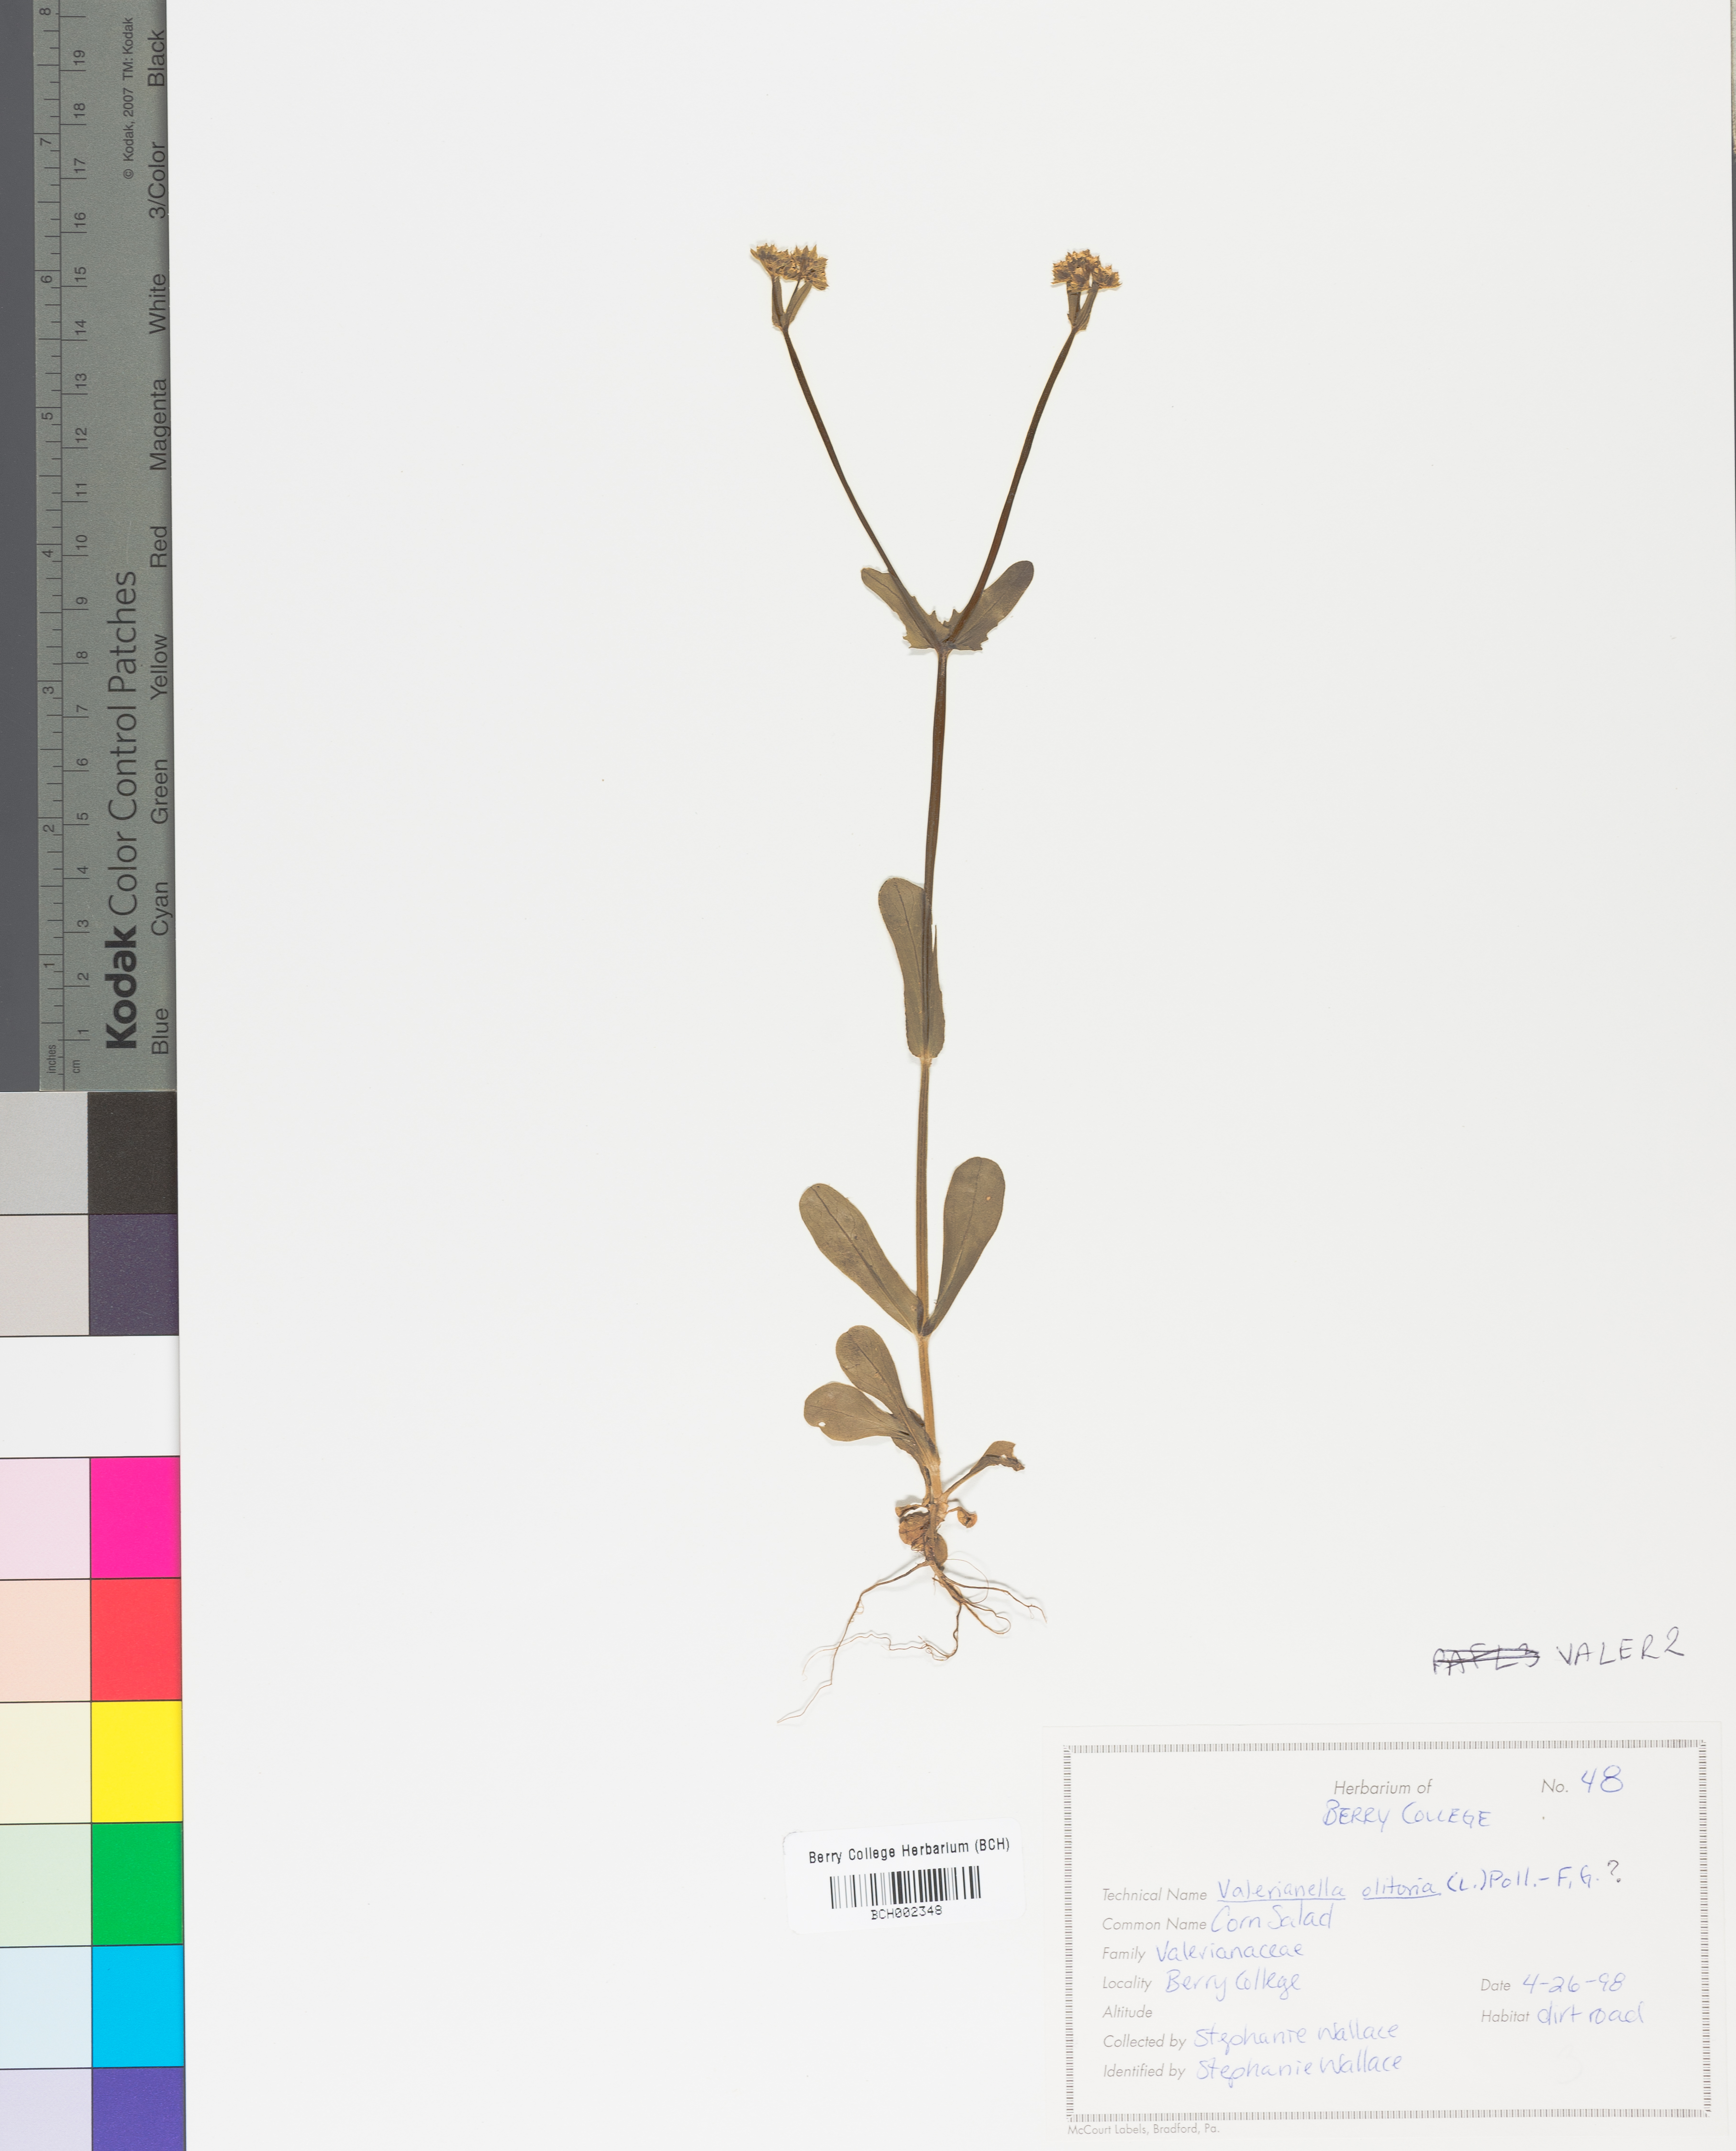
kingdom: Plantae
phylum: Tracheophyta
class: Magnoliopsida
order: Dipsacales
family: Caprifoliaceae
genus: Valerianella
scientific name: Valerianella
